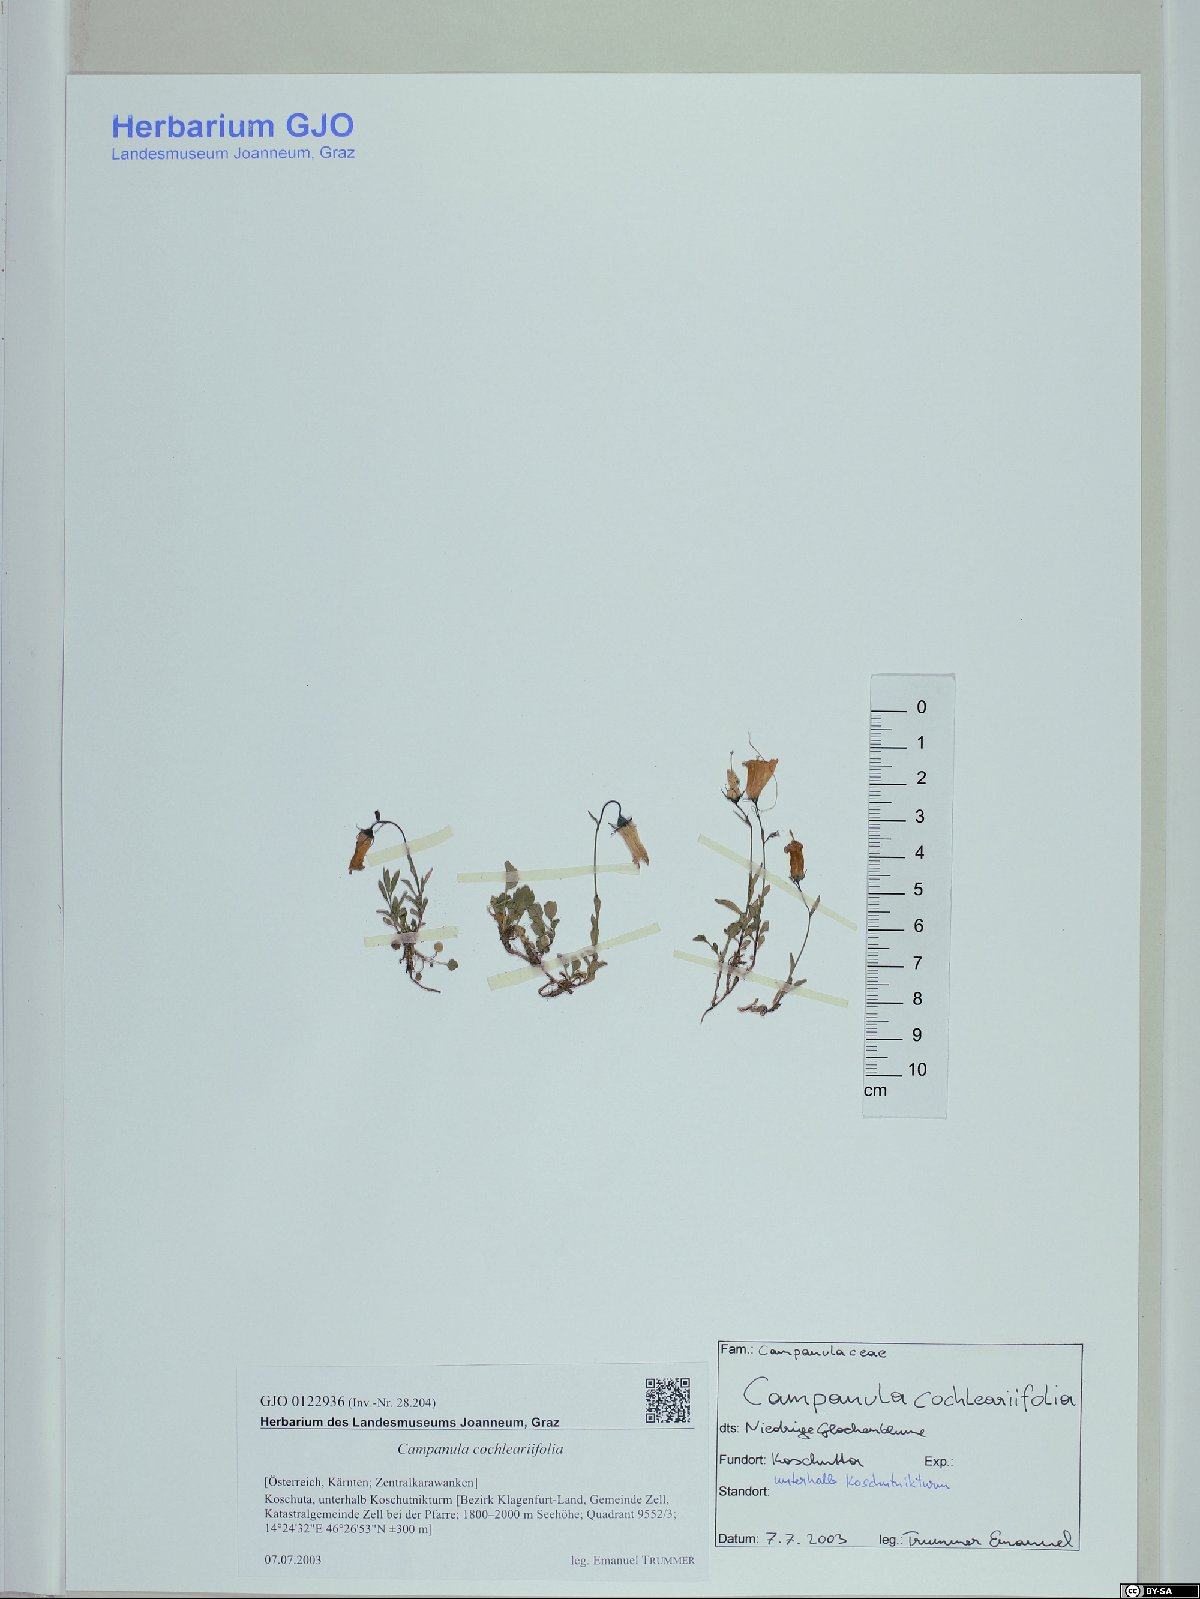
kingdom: Plantae
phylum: Tracheophyta
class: Magnoliopsida
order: Asterales
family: Campanulaceae
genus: Campanula
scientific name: Campanula cochleariifolia
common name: Fairies'-thimbles
